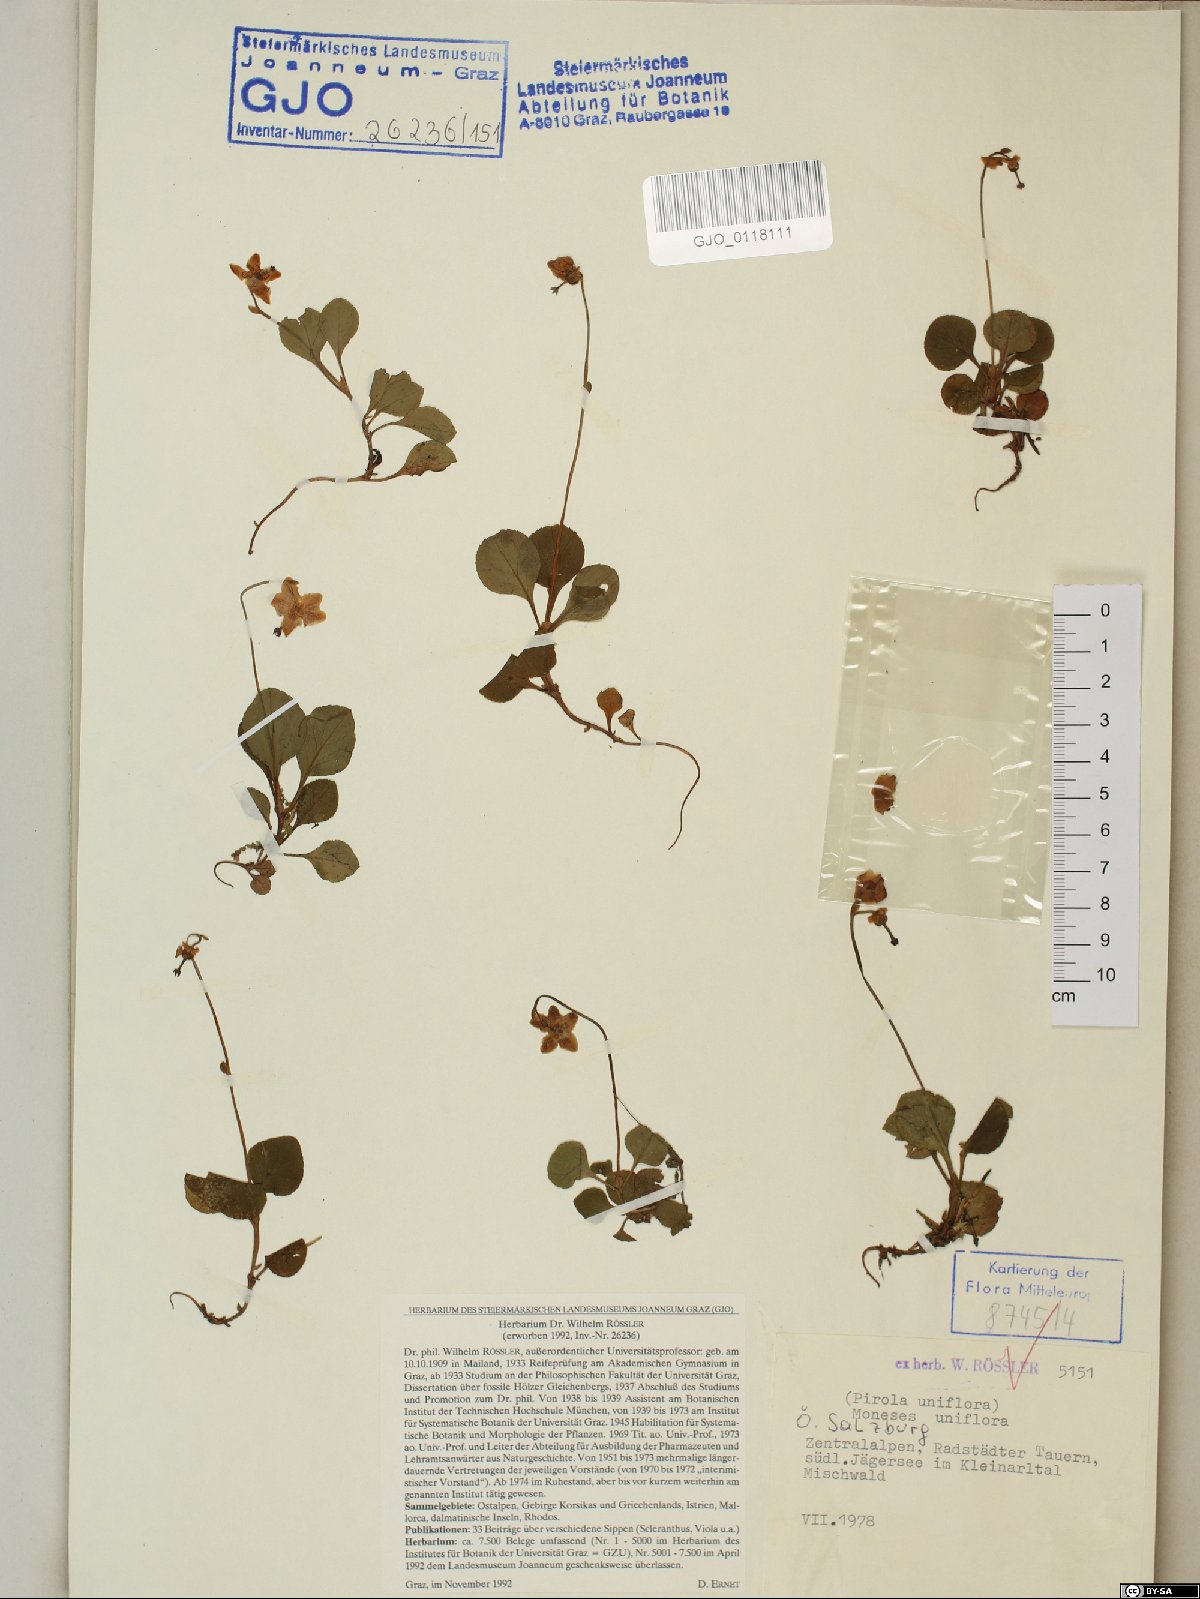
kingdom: Plantae
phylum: Tracheophyta
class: Magnoliopsida
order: Ericales
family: Ericaceae
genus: Moneses
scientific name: Moneses uniflora
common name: One-flowered wintergreen
